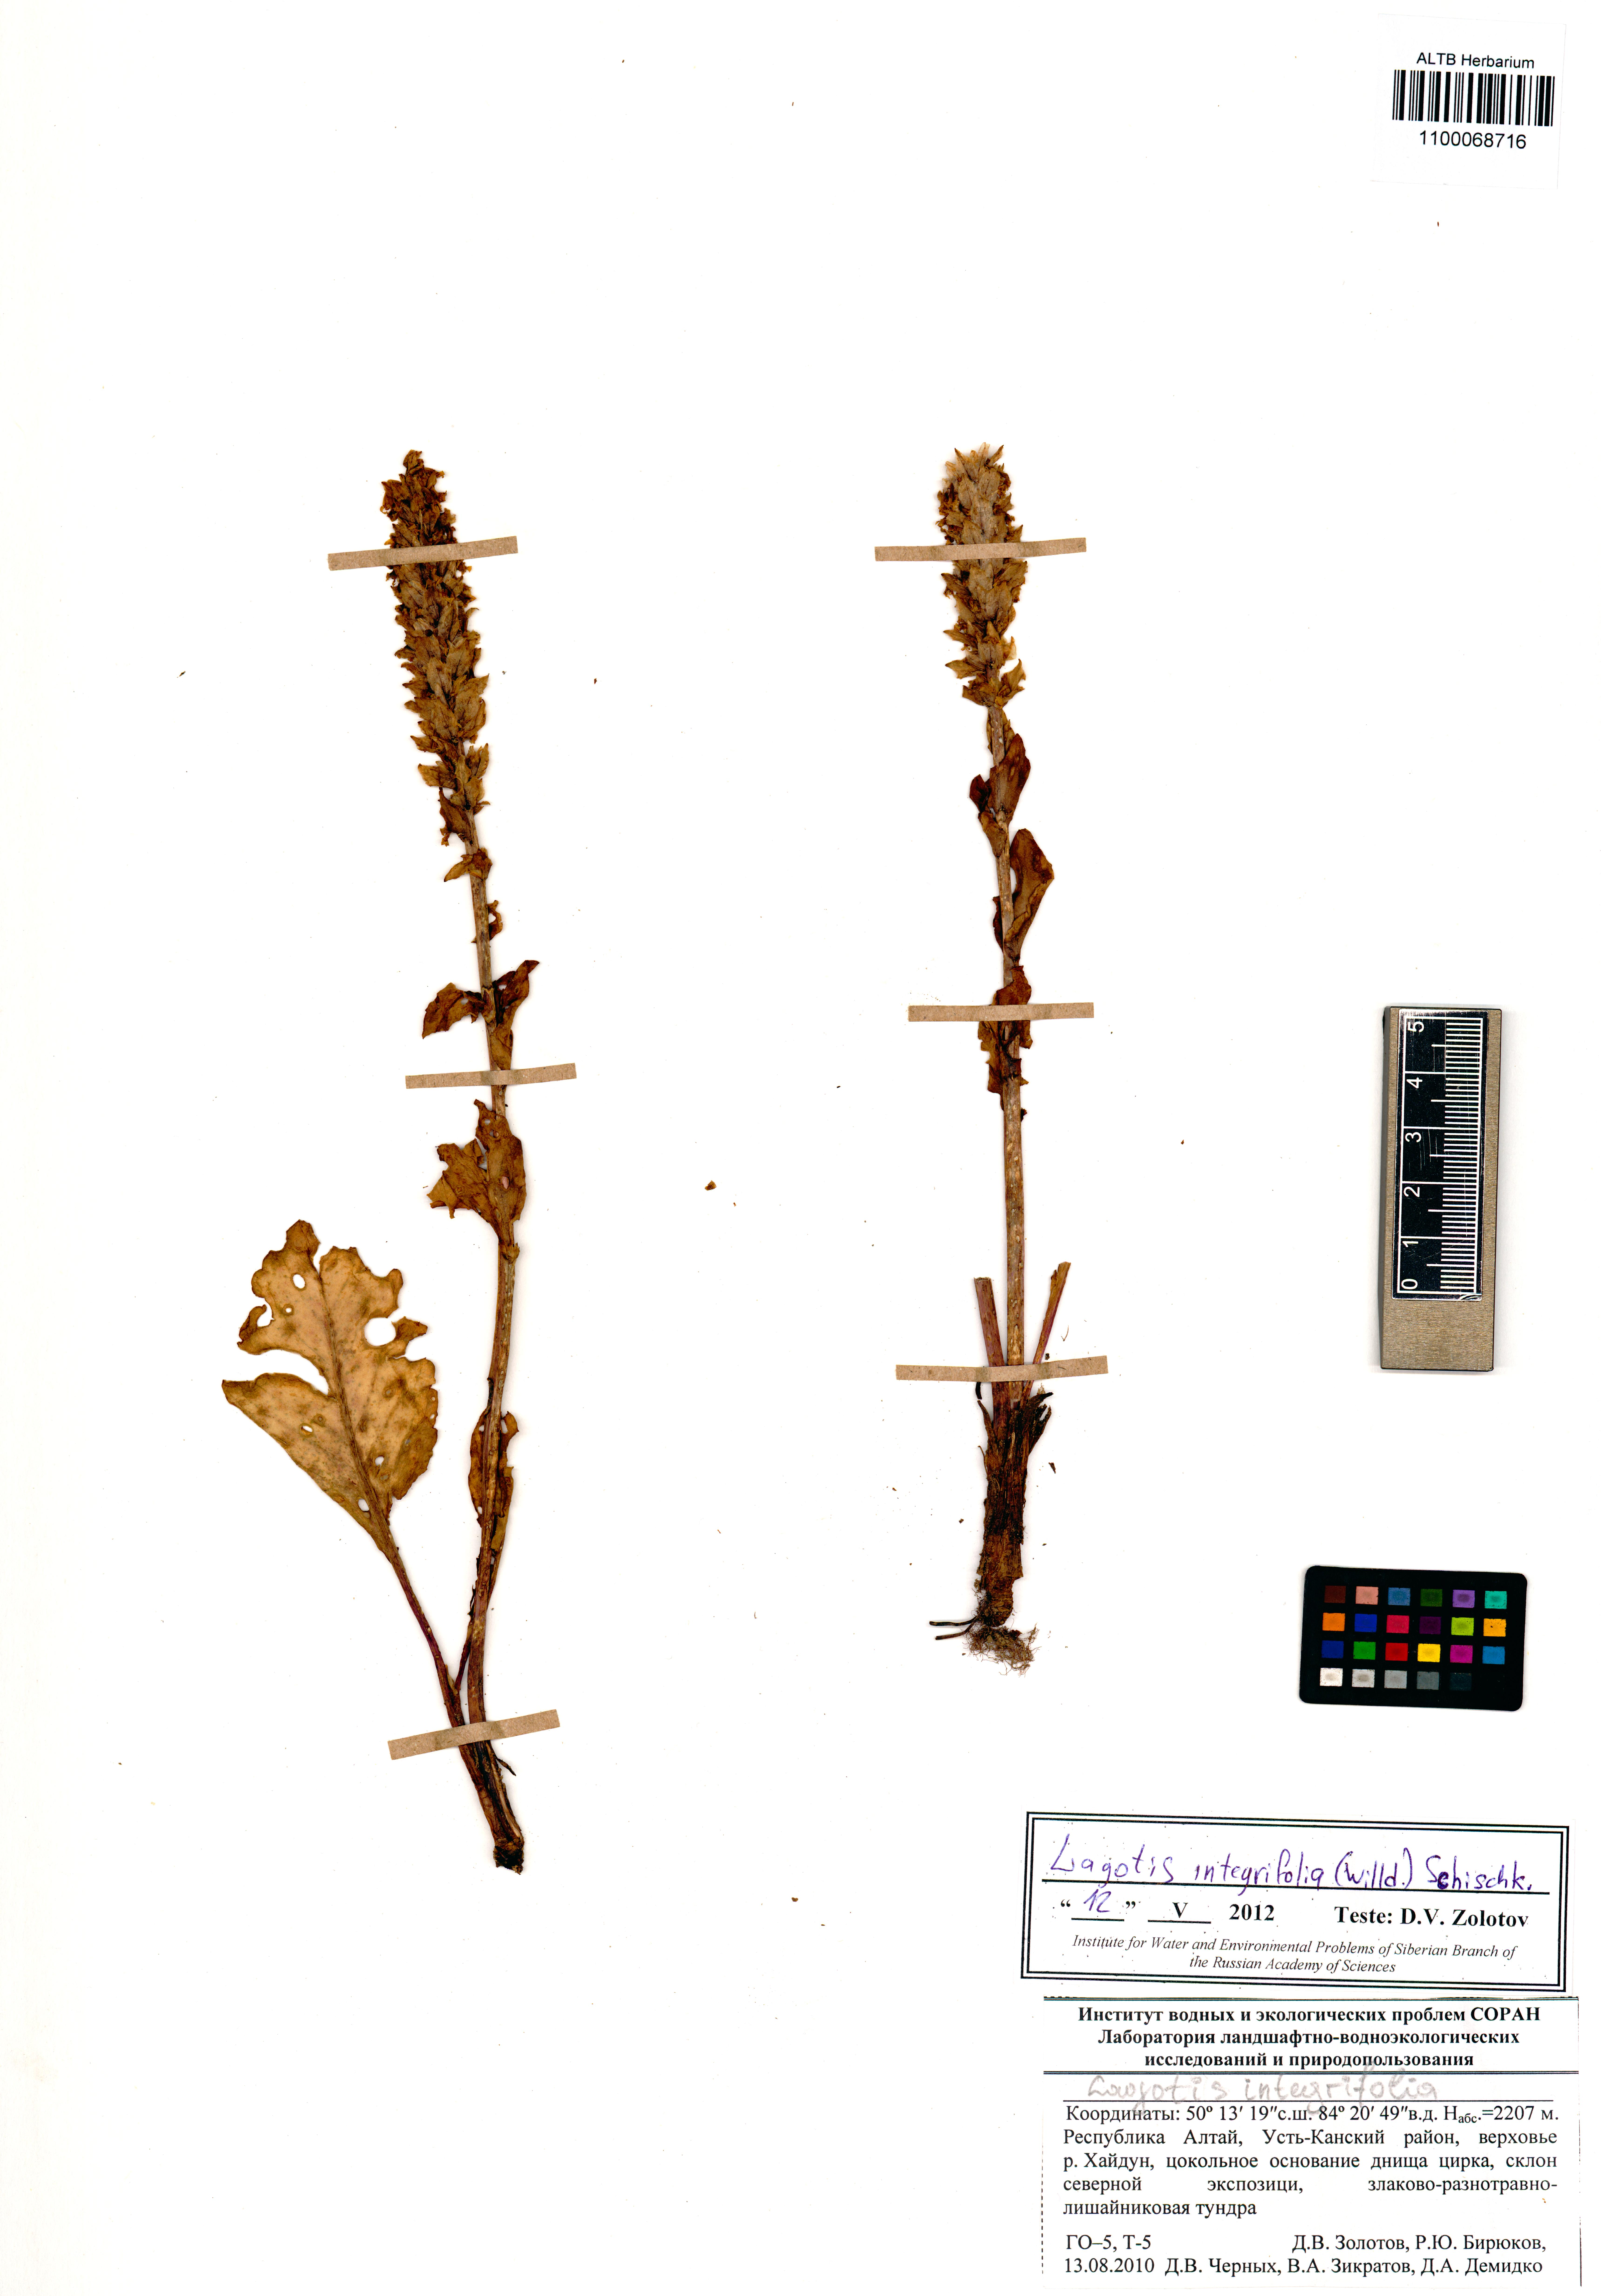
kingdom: Plantae
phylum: Tracheophyta
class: Magnoliopsida
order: Lamiales
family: Plantaginaceae
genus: Lagotis
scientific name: Lagotis integrifolia
